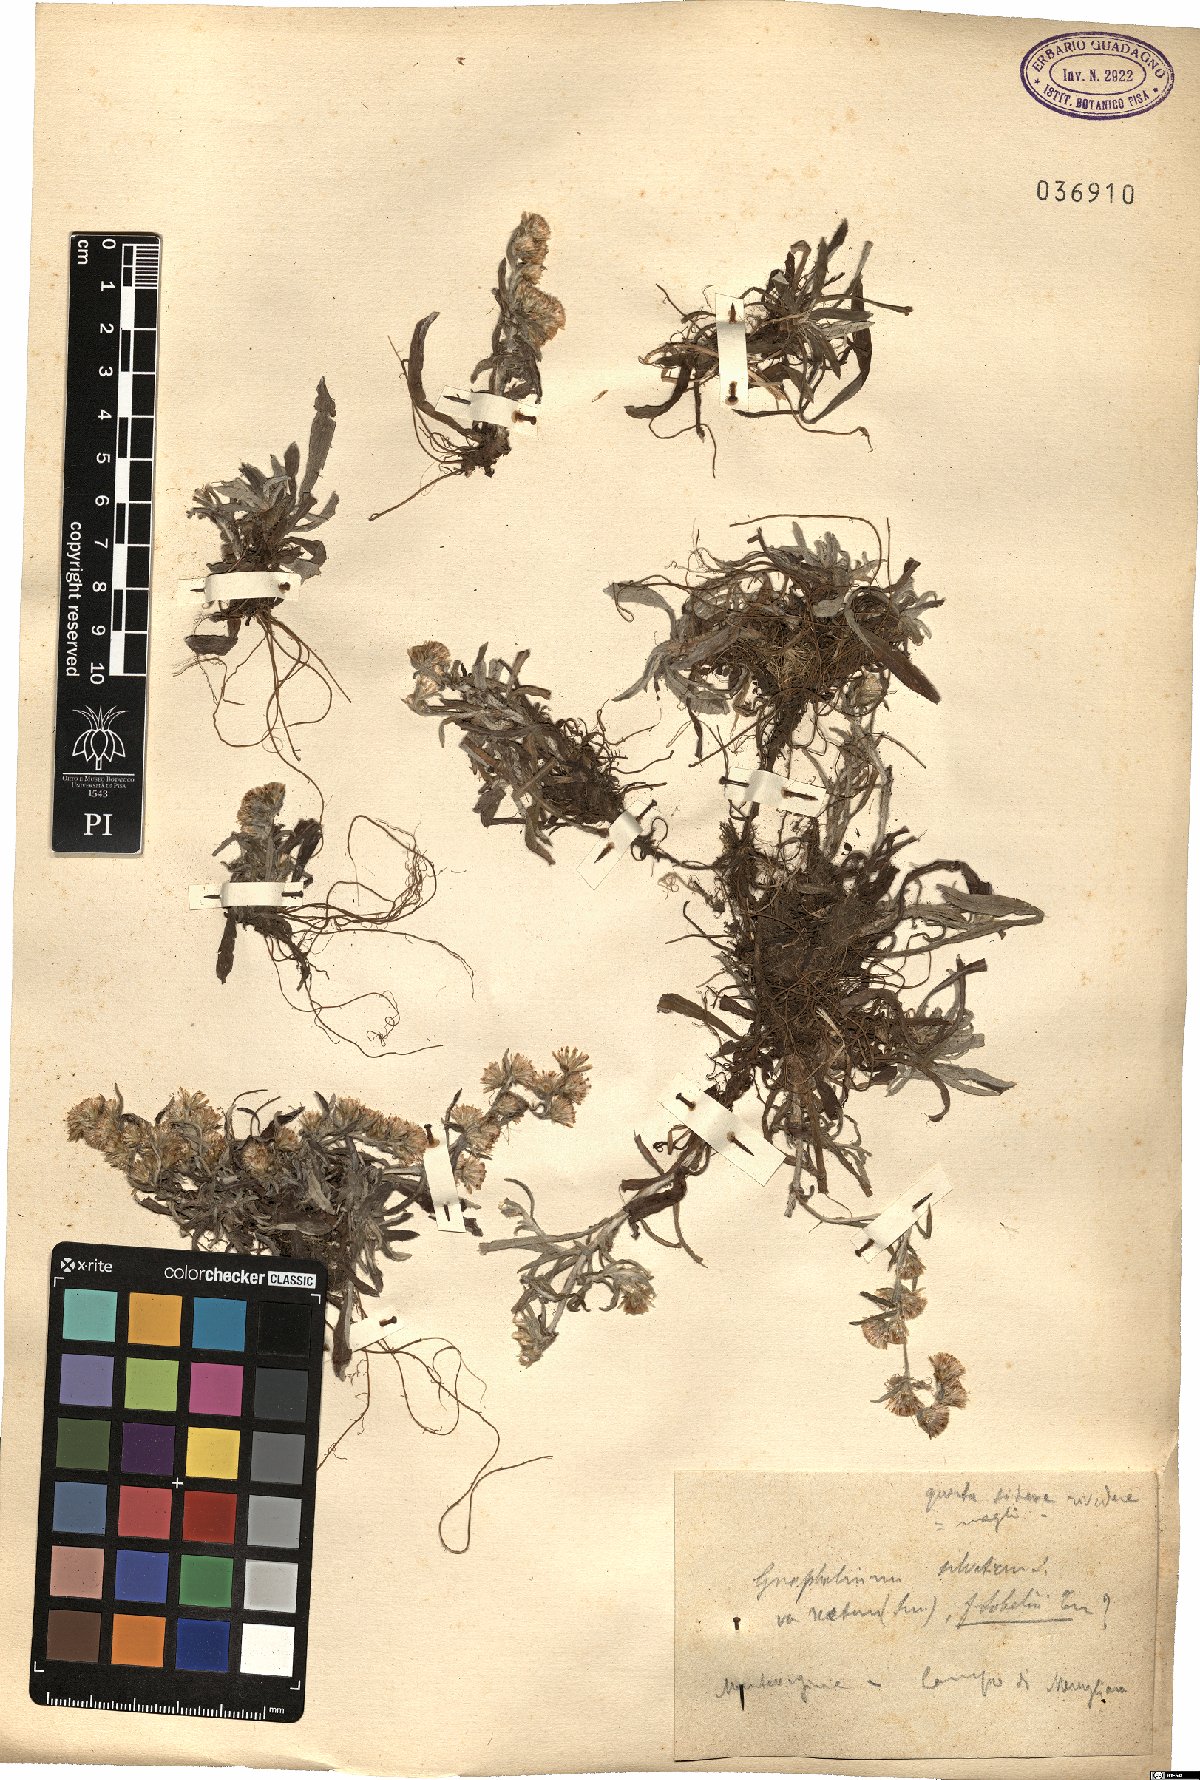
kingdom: Plantae
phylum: Tracheophyta
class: Magnoliopsida
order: Asterales
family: Asteraceae
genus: Omalotheca
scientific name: Omalotheca sylvatica
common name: Heath cudweed
